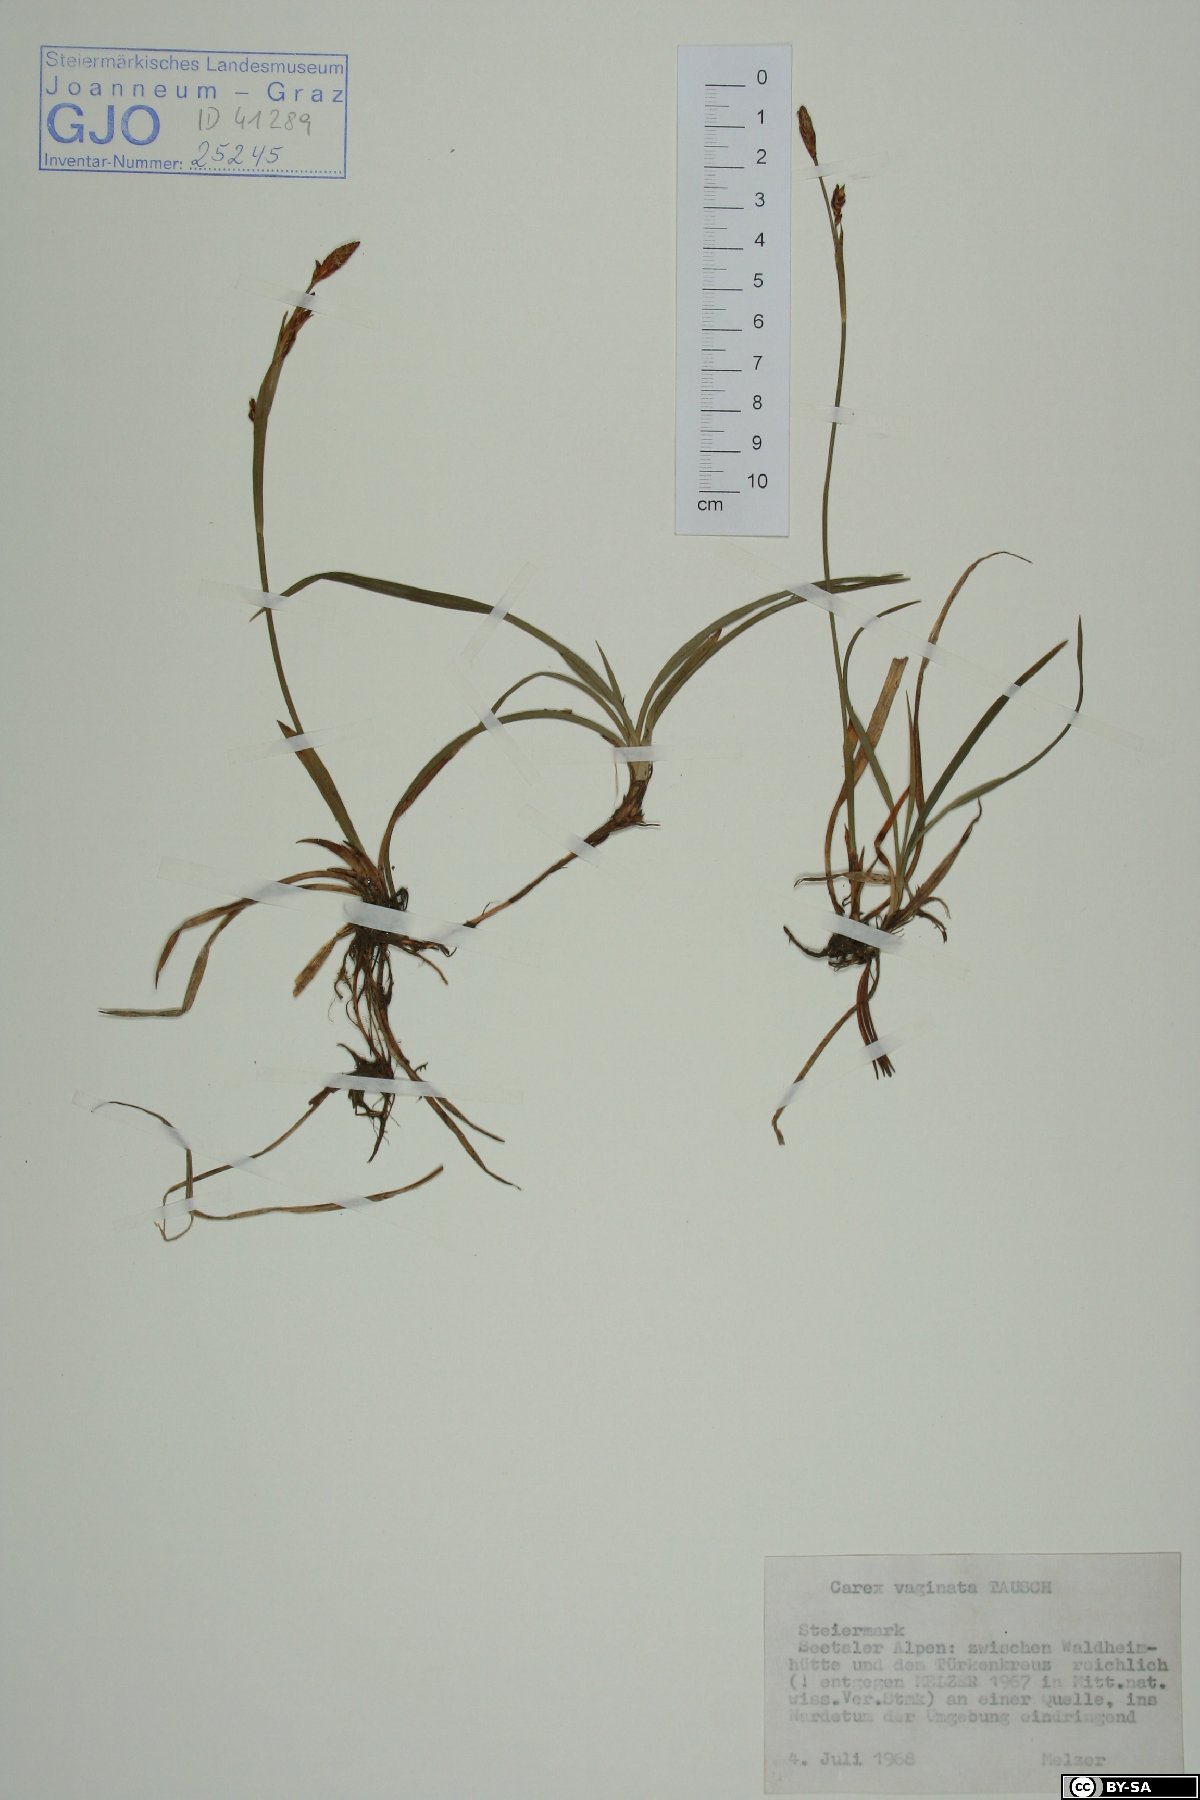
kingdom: Plantae
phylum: Tracheophyta
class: Liliopsida
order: Poales
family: Cyperaceae
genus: Carex
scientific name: Carex vaginata
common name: Sheathed sedge
